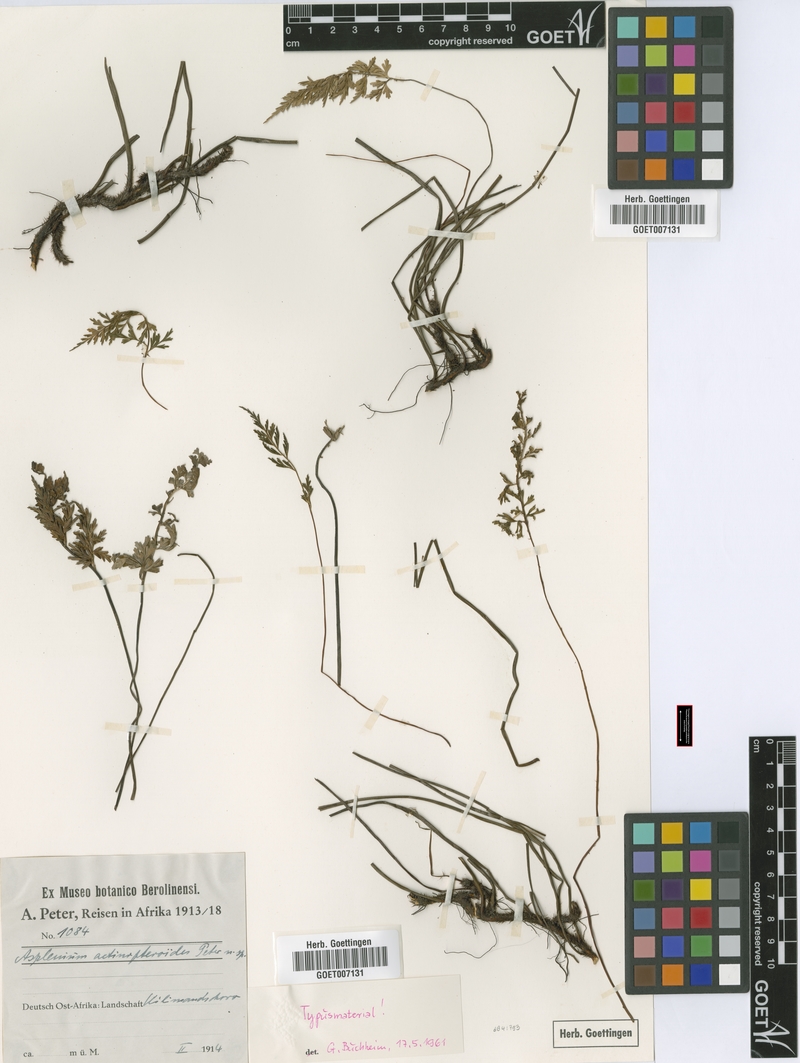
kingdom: Plantae
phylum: Tracheophyta
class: Polypodiopsida
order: Polypodiales
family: Aspleniaceae
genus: Asplenium
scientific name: Asplenium actiniopteroides
